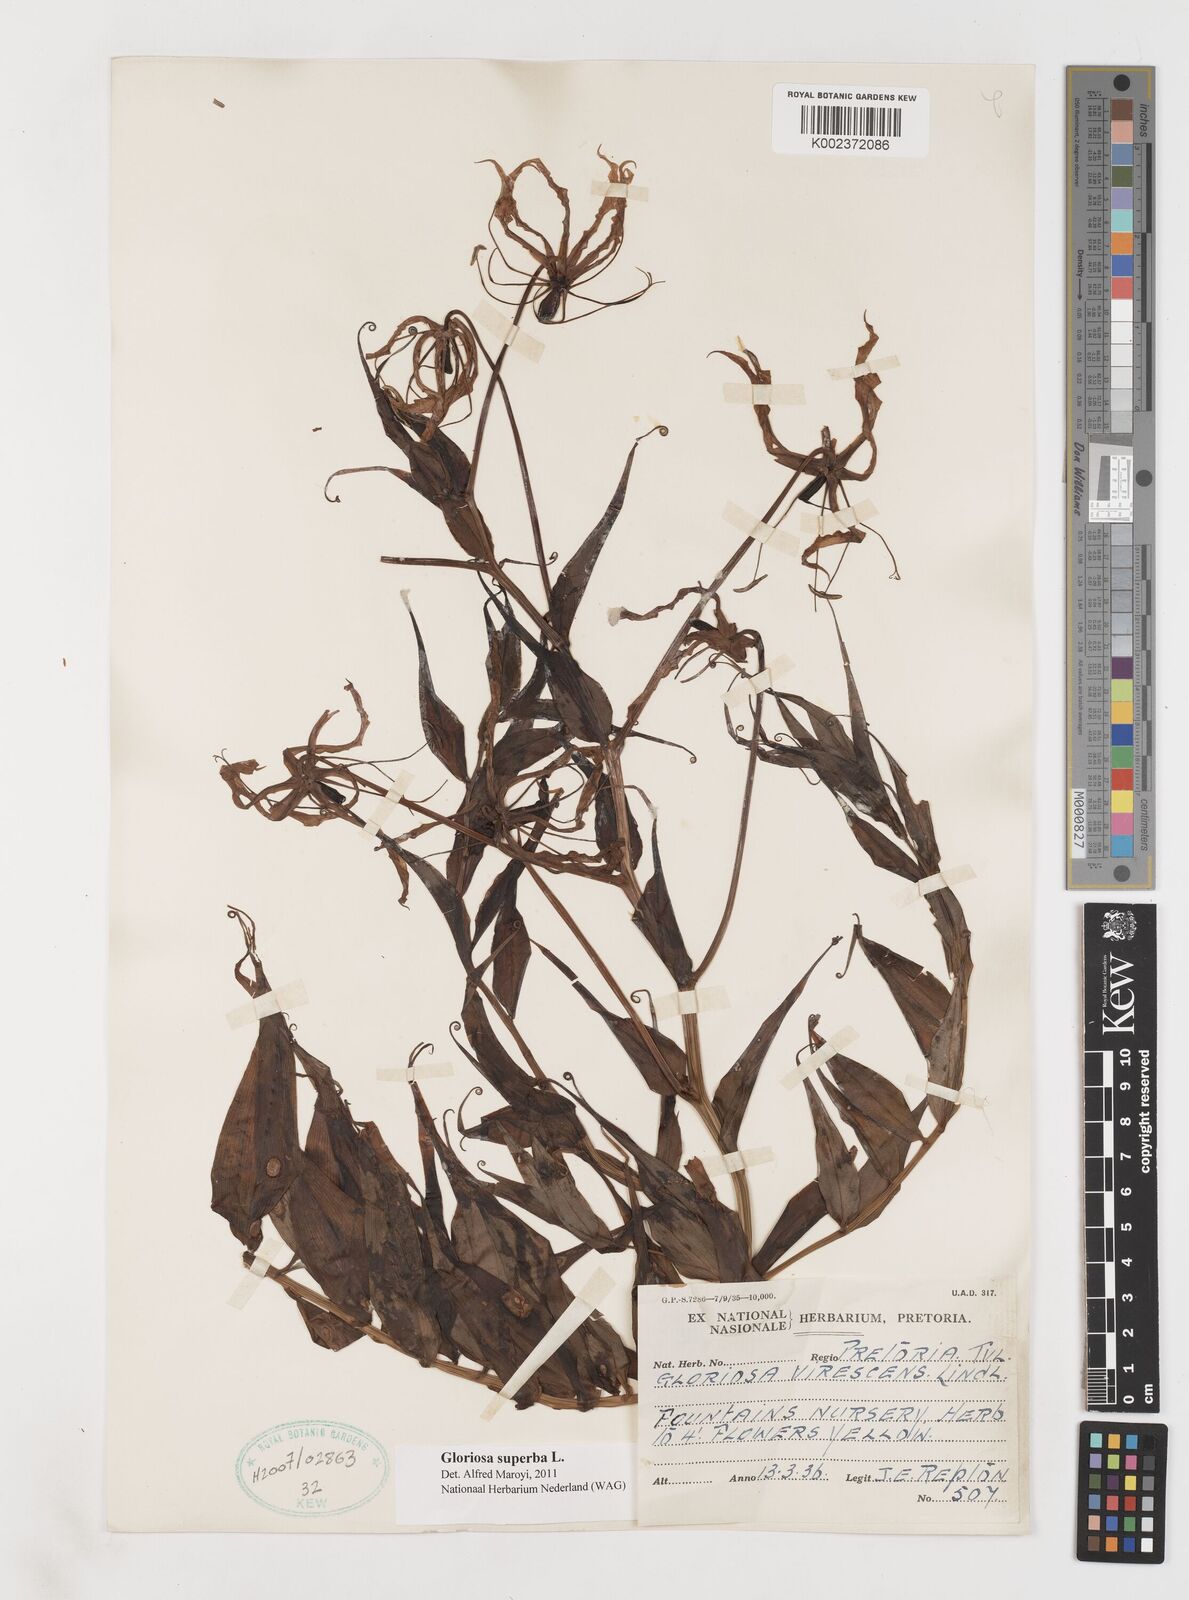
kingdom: Plantae
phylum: Tracheophyta
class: Liliopsida
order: Liliales
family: Colchicaceae
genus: Gloriosa
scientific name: Gloriosa superba
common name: Flame lily
